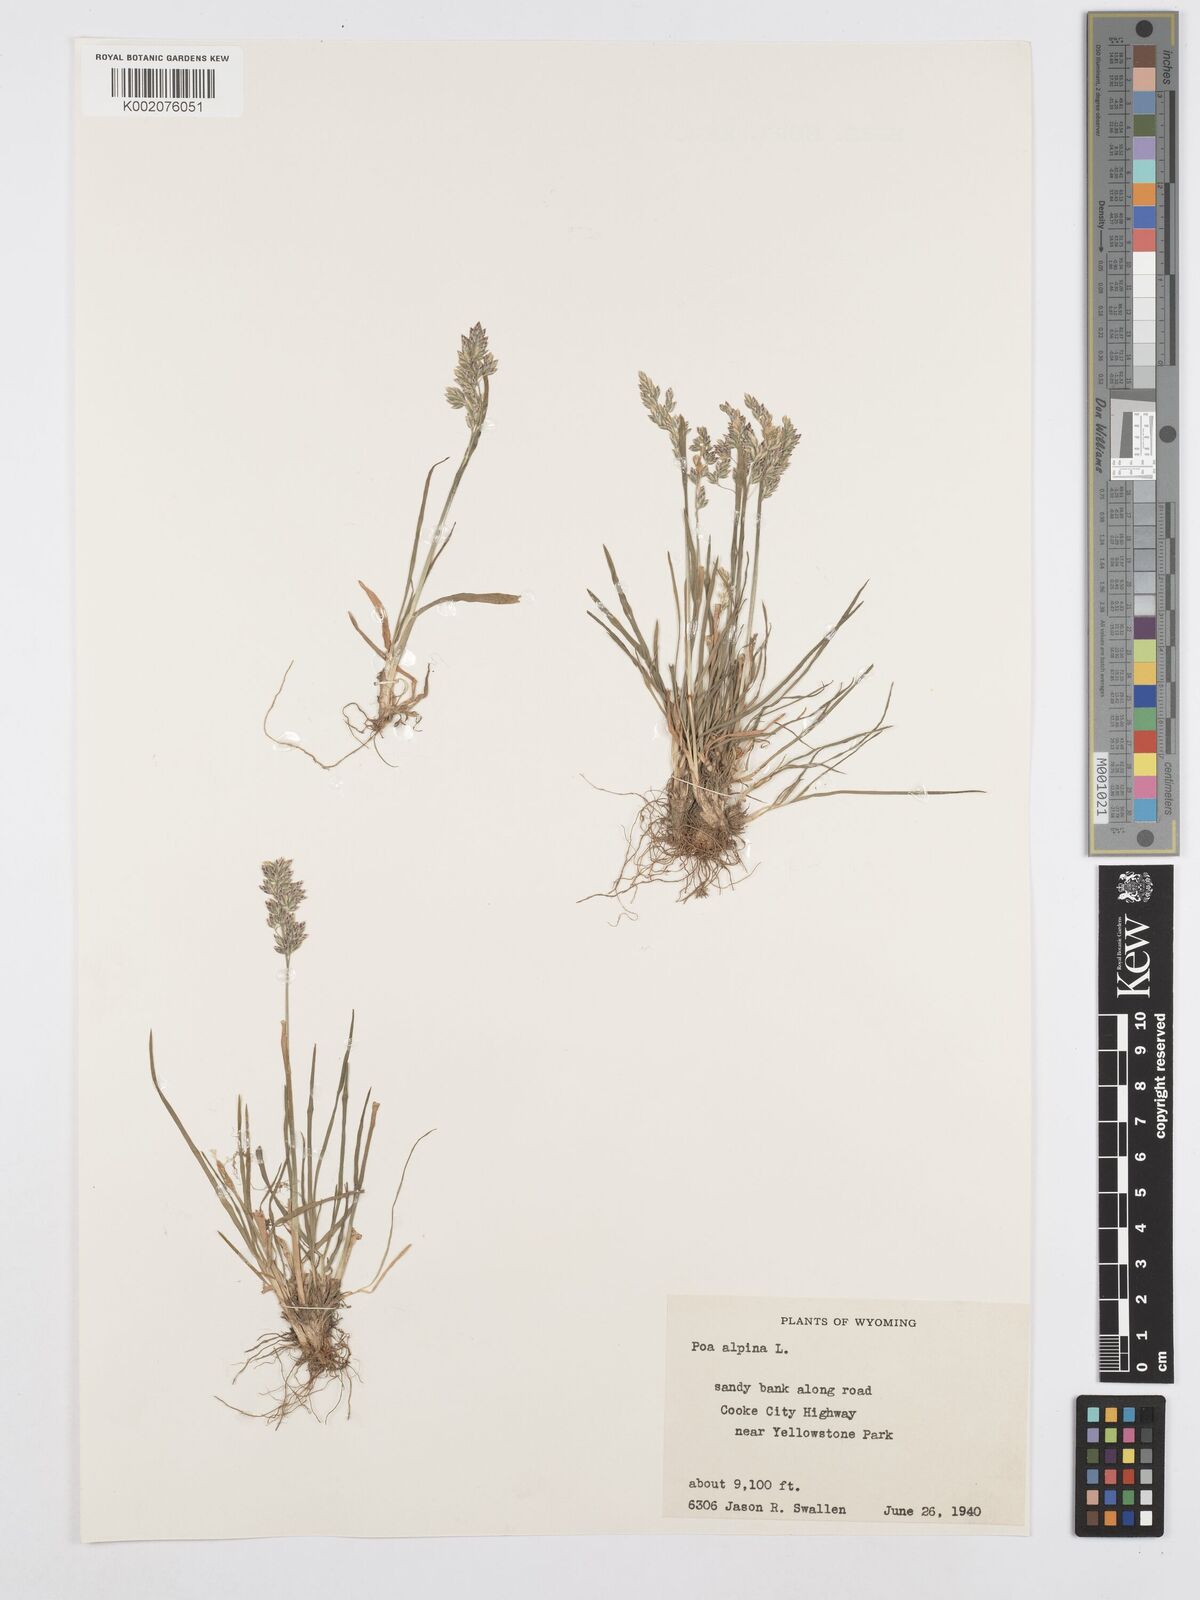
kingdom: Plantae
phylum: Tracheophyta
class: Liliopsida
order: Poales
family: Poaceae
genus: Poa
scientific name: Poa alpina
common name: Alpine bluegrass
